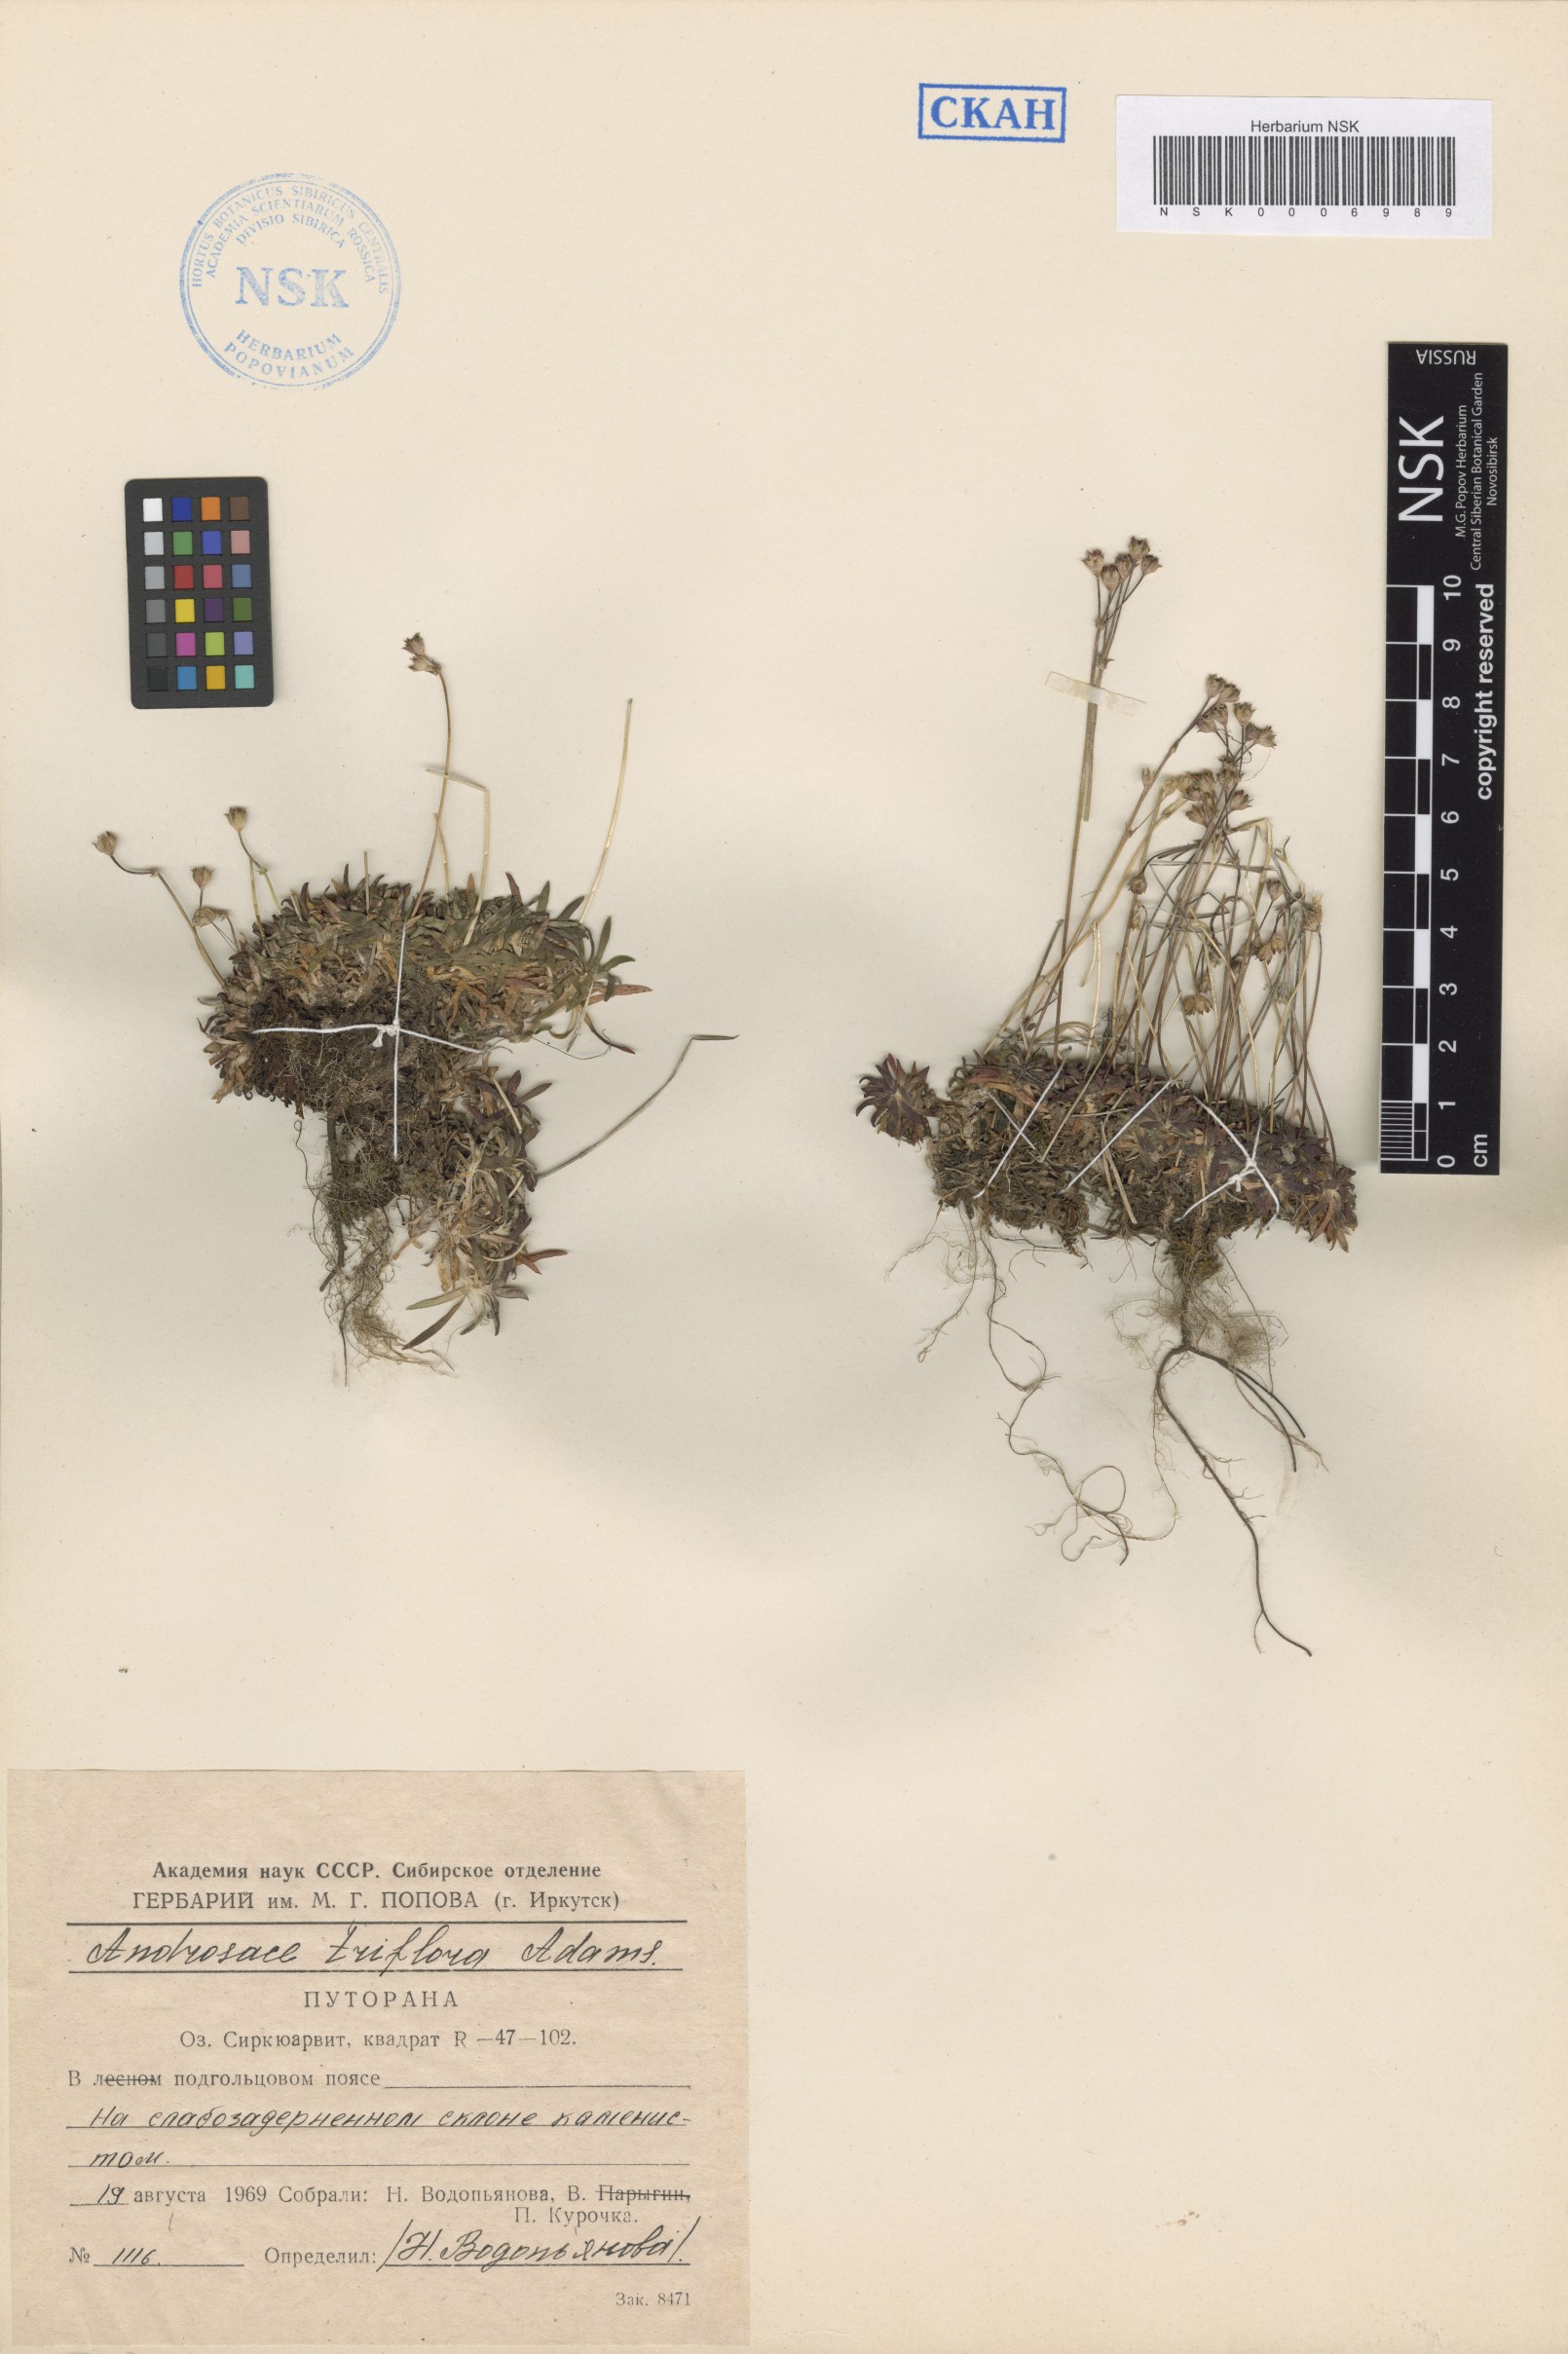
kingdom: Plantae
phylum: Tracheophyta
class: Magnoliopsida
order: Ericales
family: Primulaceae
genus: Androsace
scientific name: Androsace triflora
